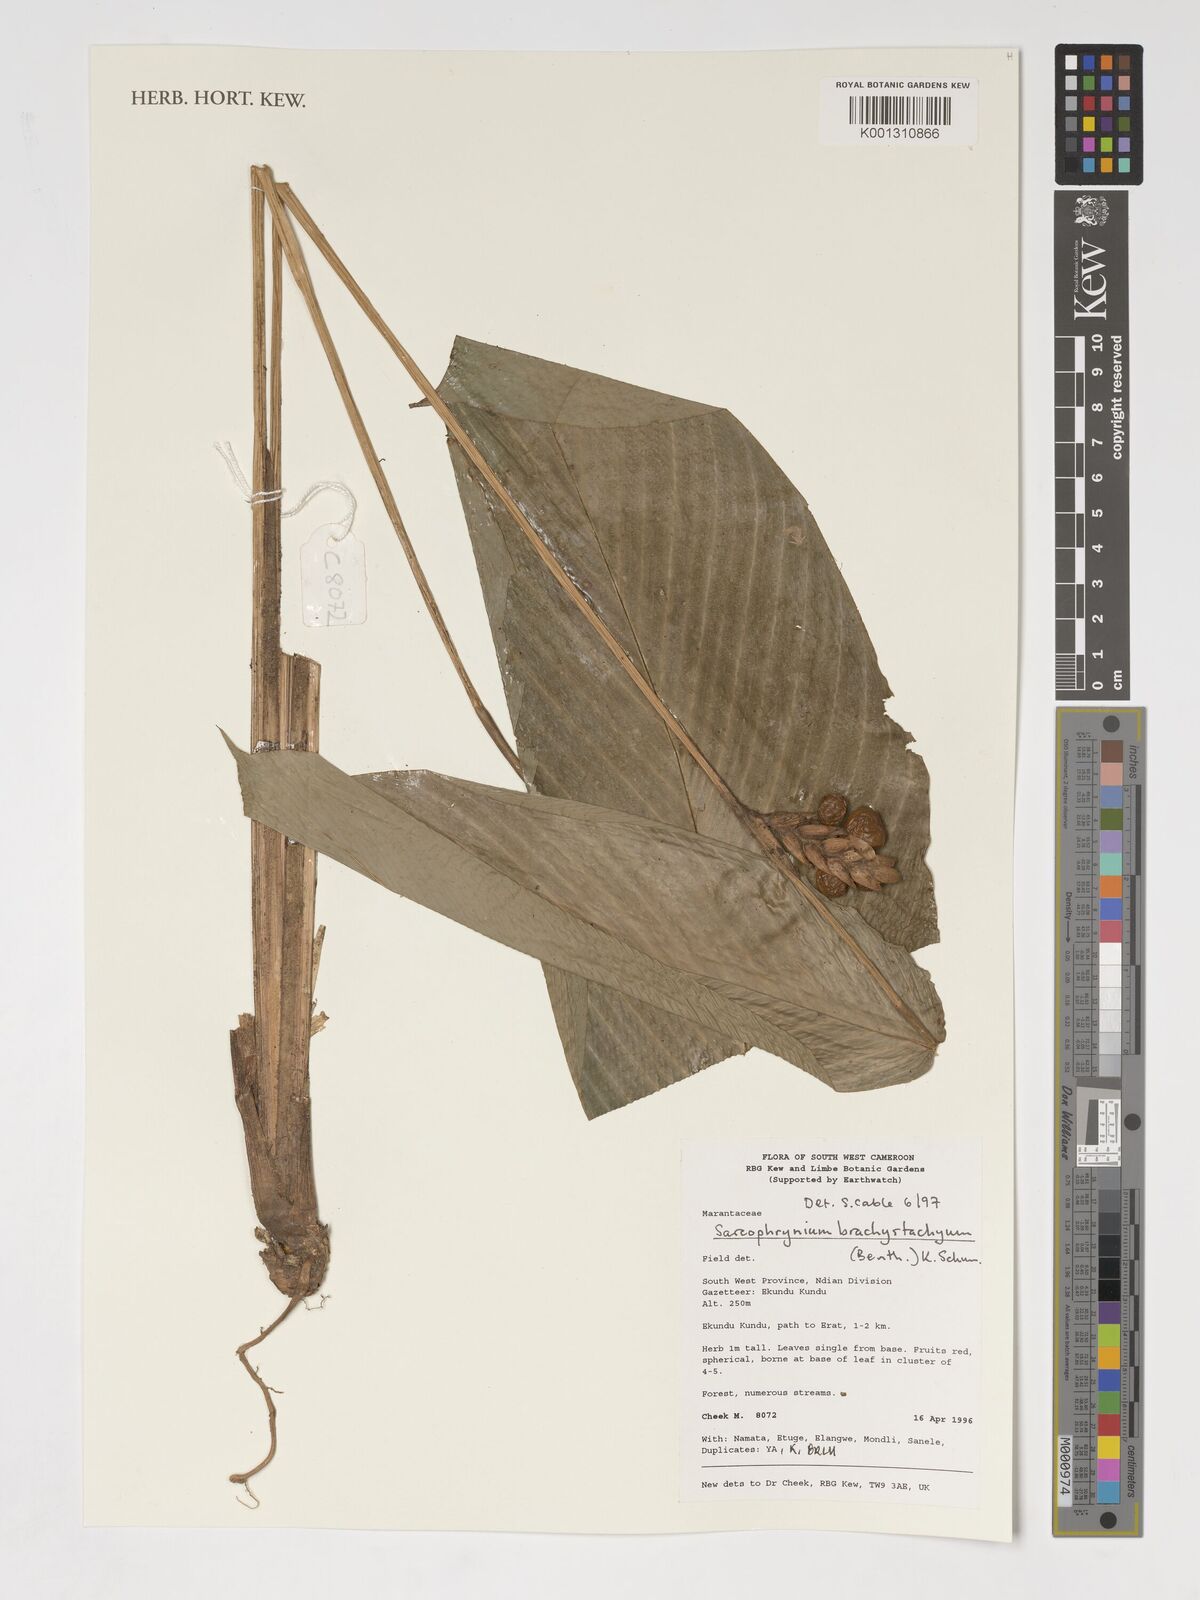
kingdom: Plantae
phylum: Tracheophyta
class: Liliopsida
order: Zingiberales
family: Marantaceae
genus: Sarcophrynium
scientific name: Sarcophrynium brachystachyum
